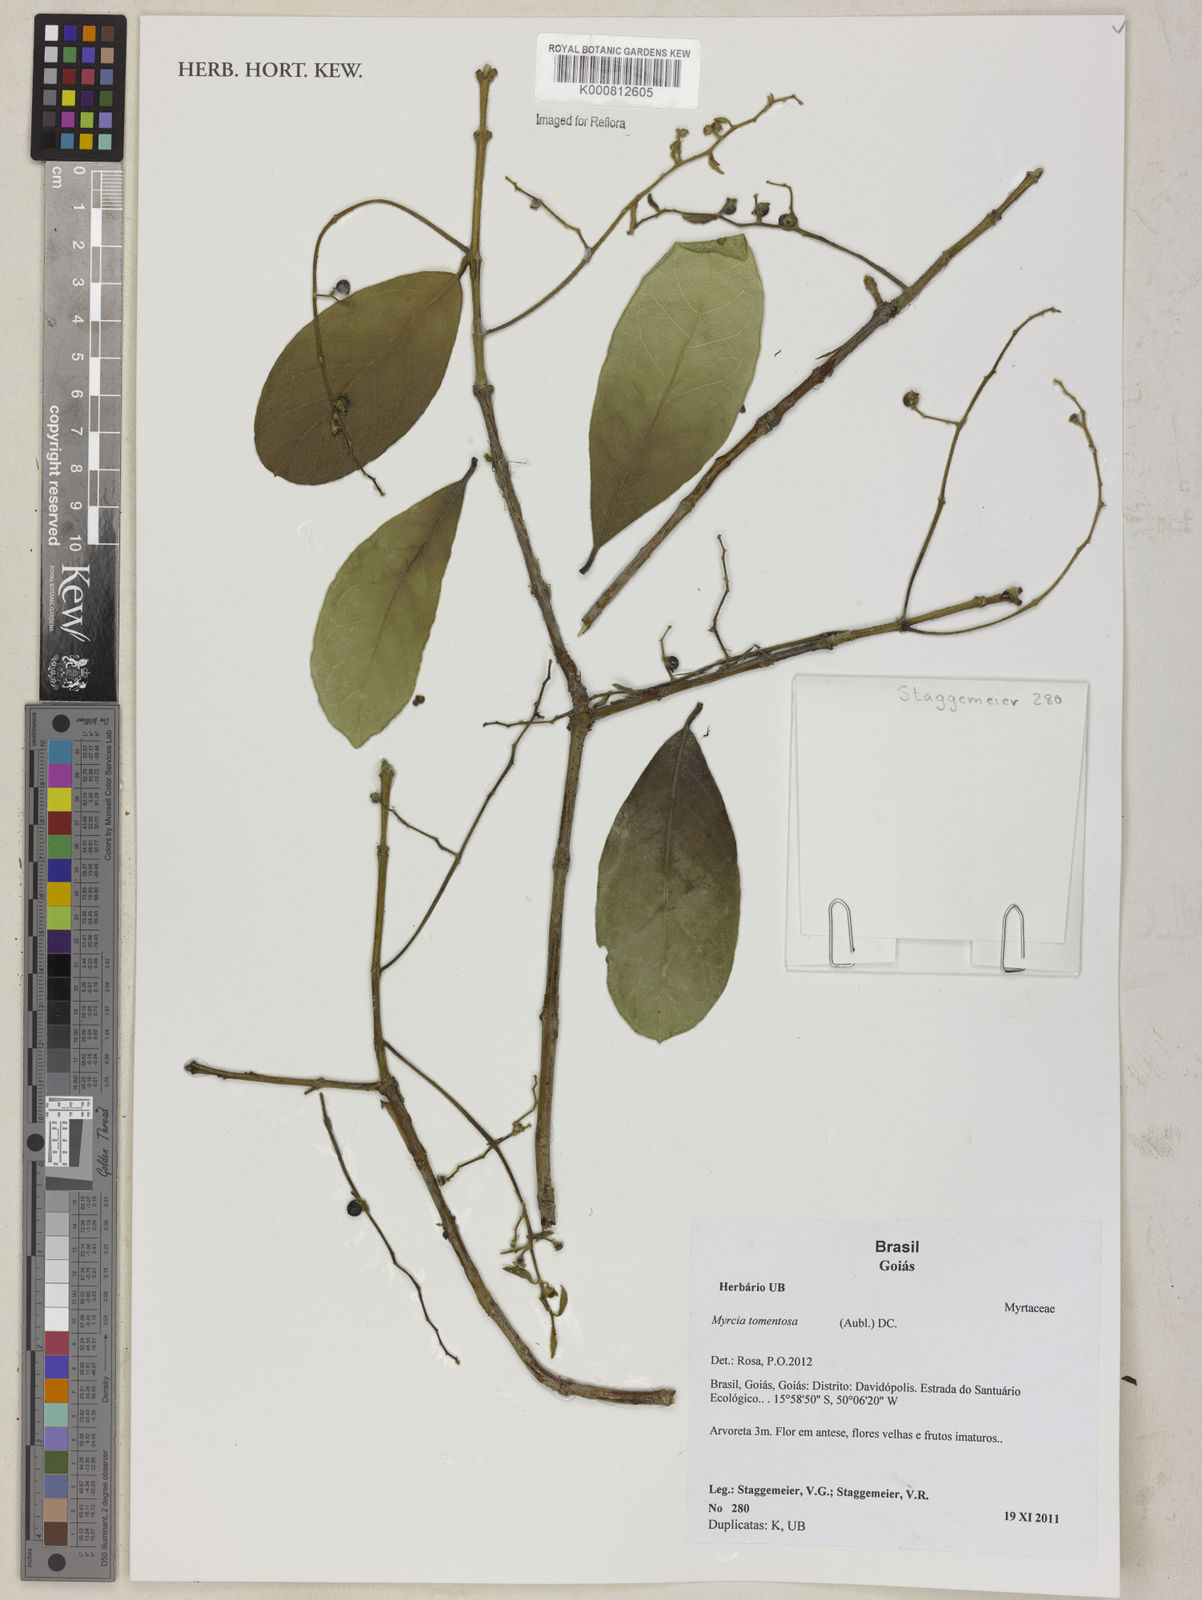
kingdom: Plantae
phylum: Tracheophyta
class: Magnoliopsida
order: Myrtales
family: Myrtaceae
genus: Myrcia
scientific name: Myrcia tomentosa
